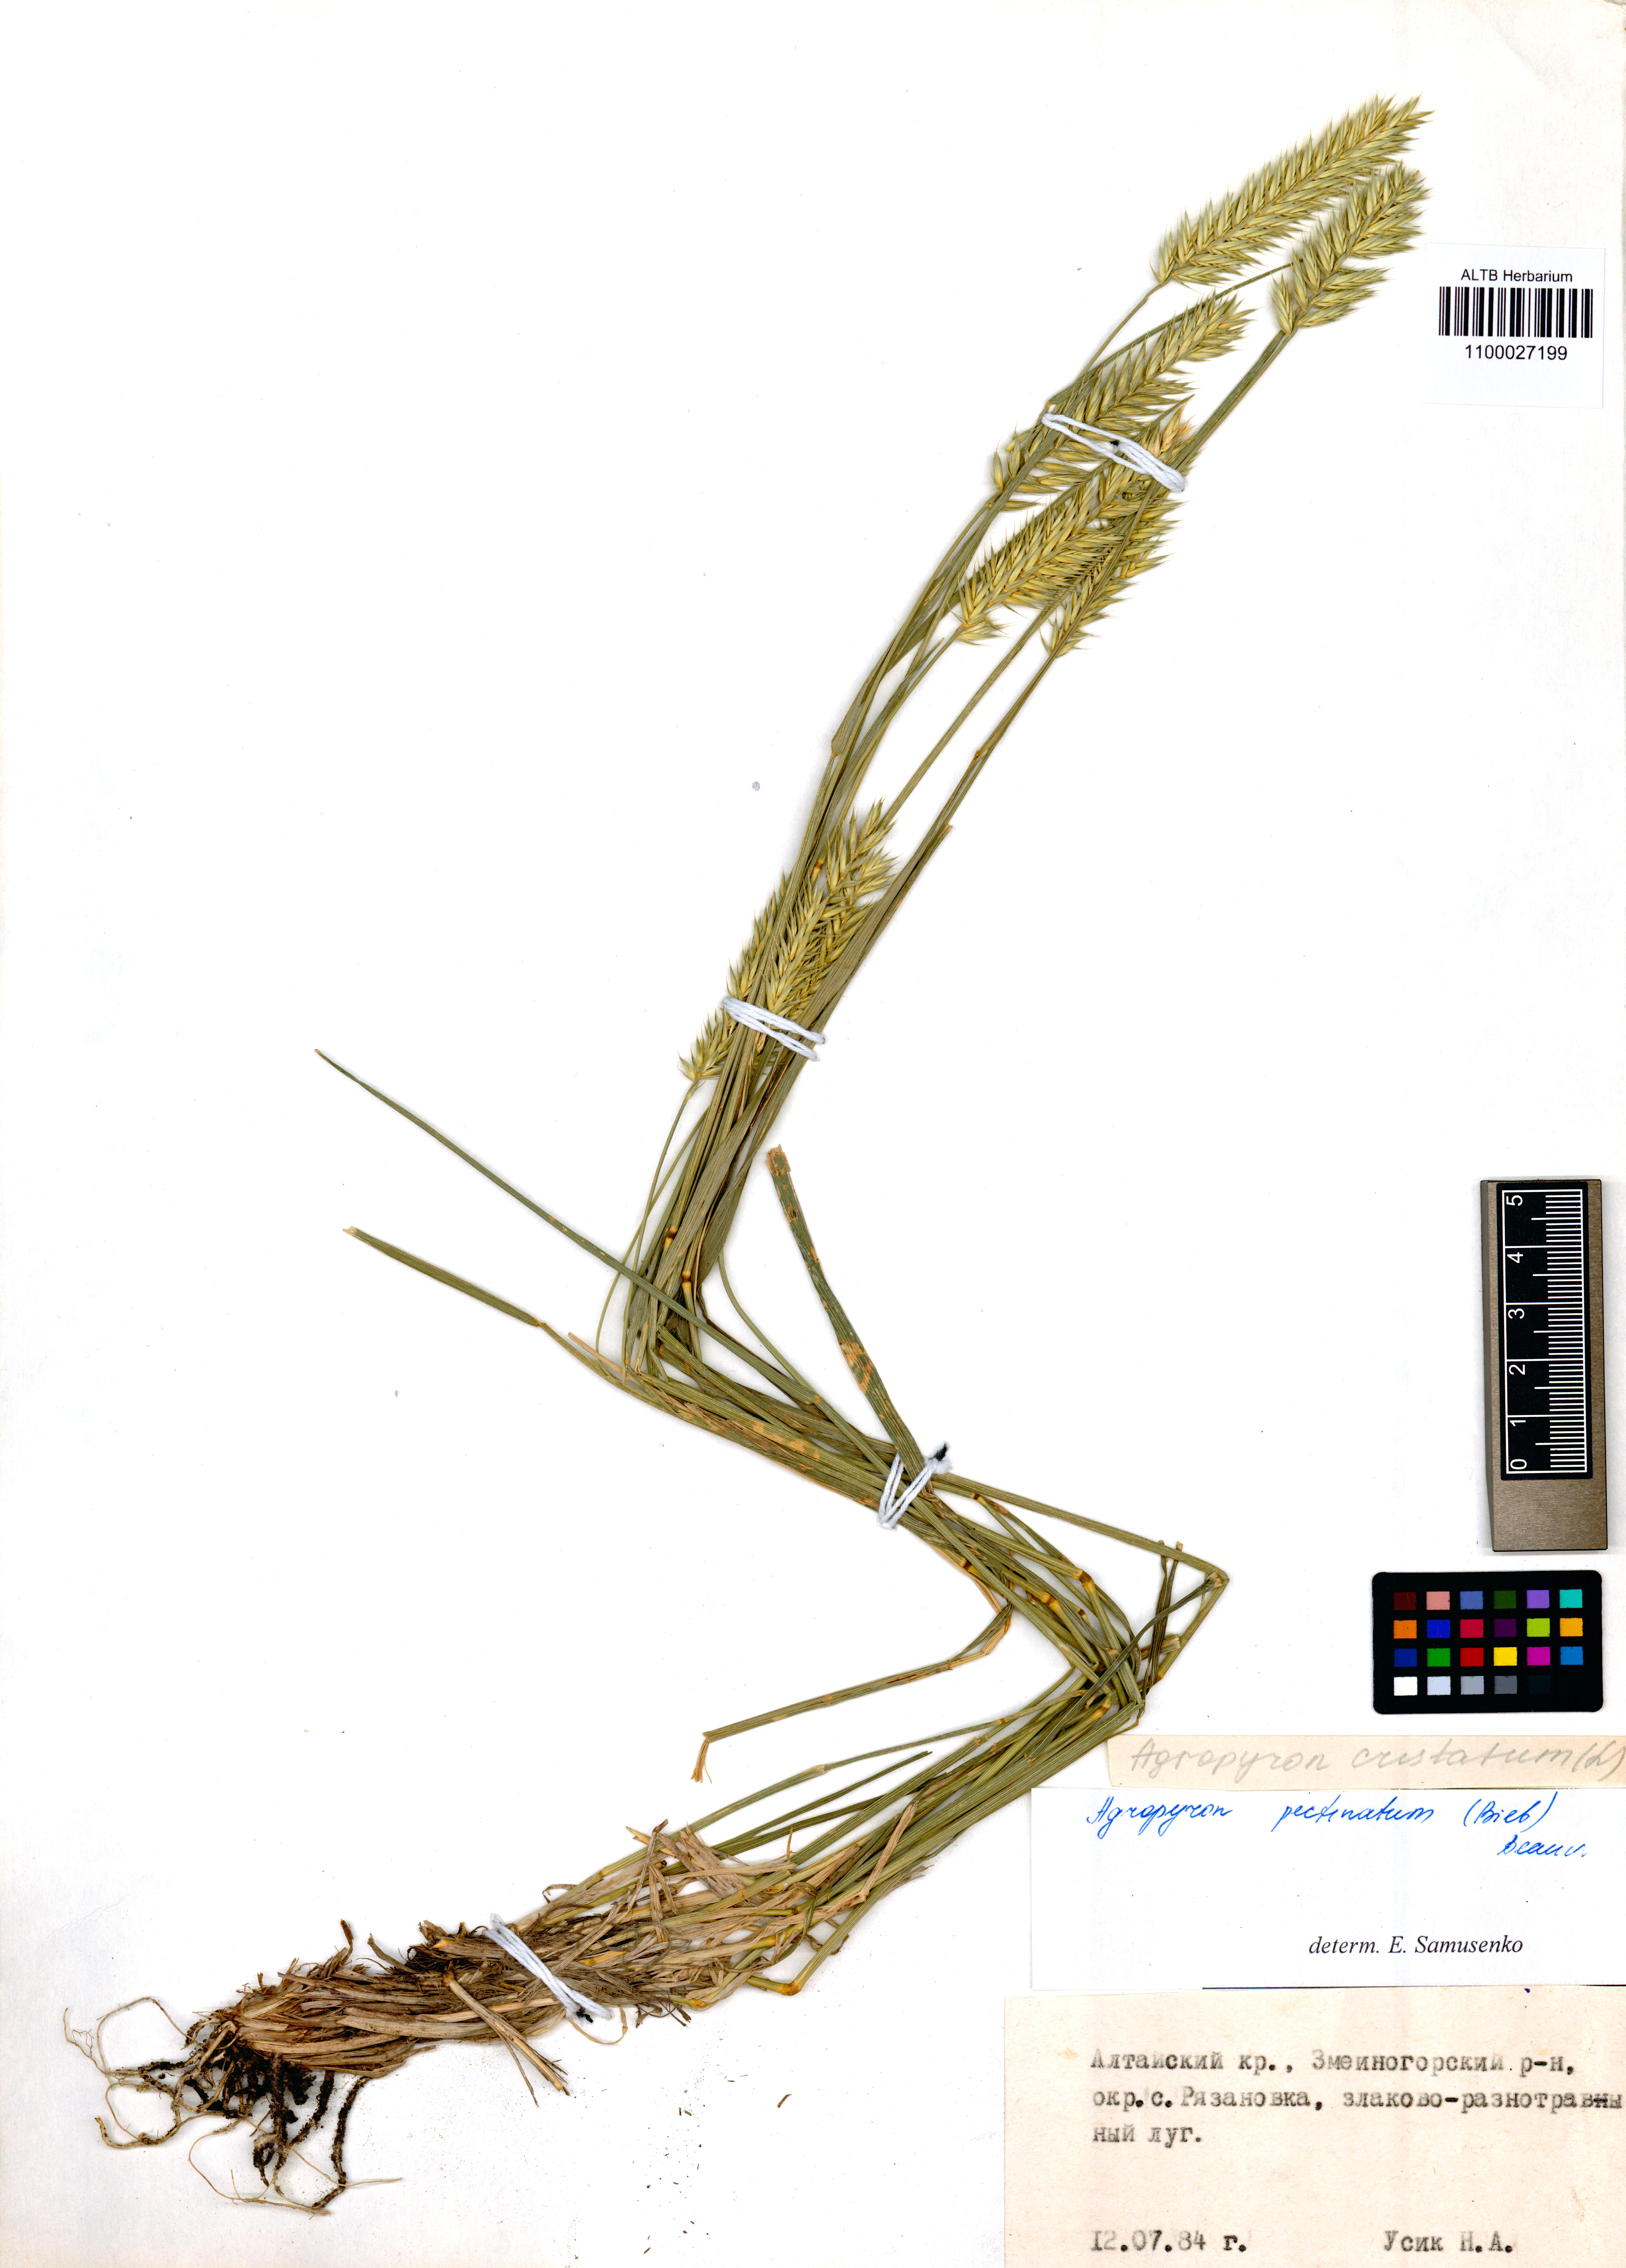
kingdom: Plantae
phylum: Tracheophyta
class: Liliopsida
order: Poales
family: Poaceae
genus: Agropyron
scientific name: Agropyron cristatum
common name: Crested wheatgrass
